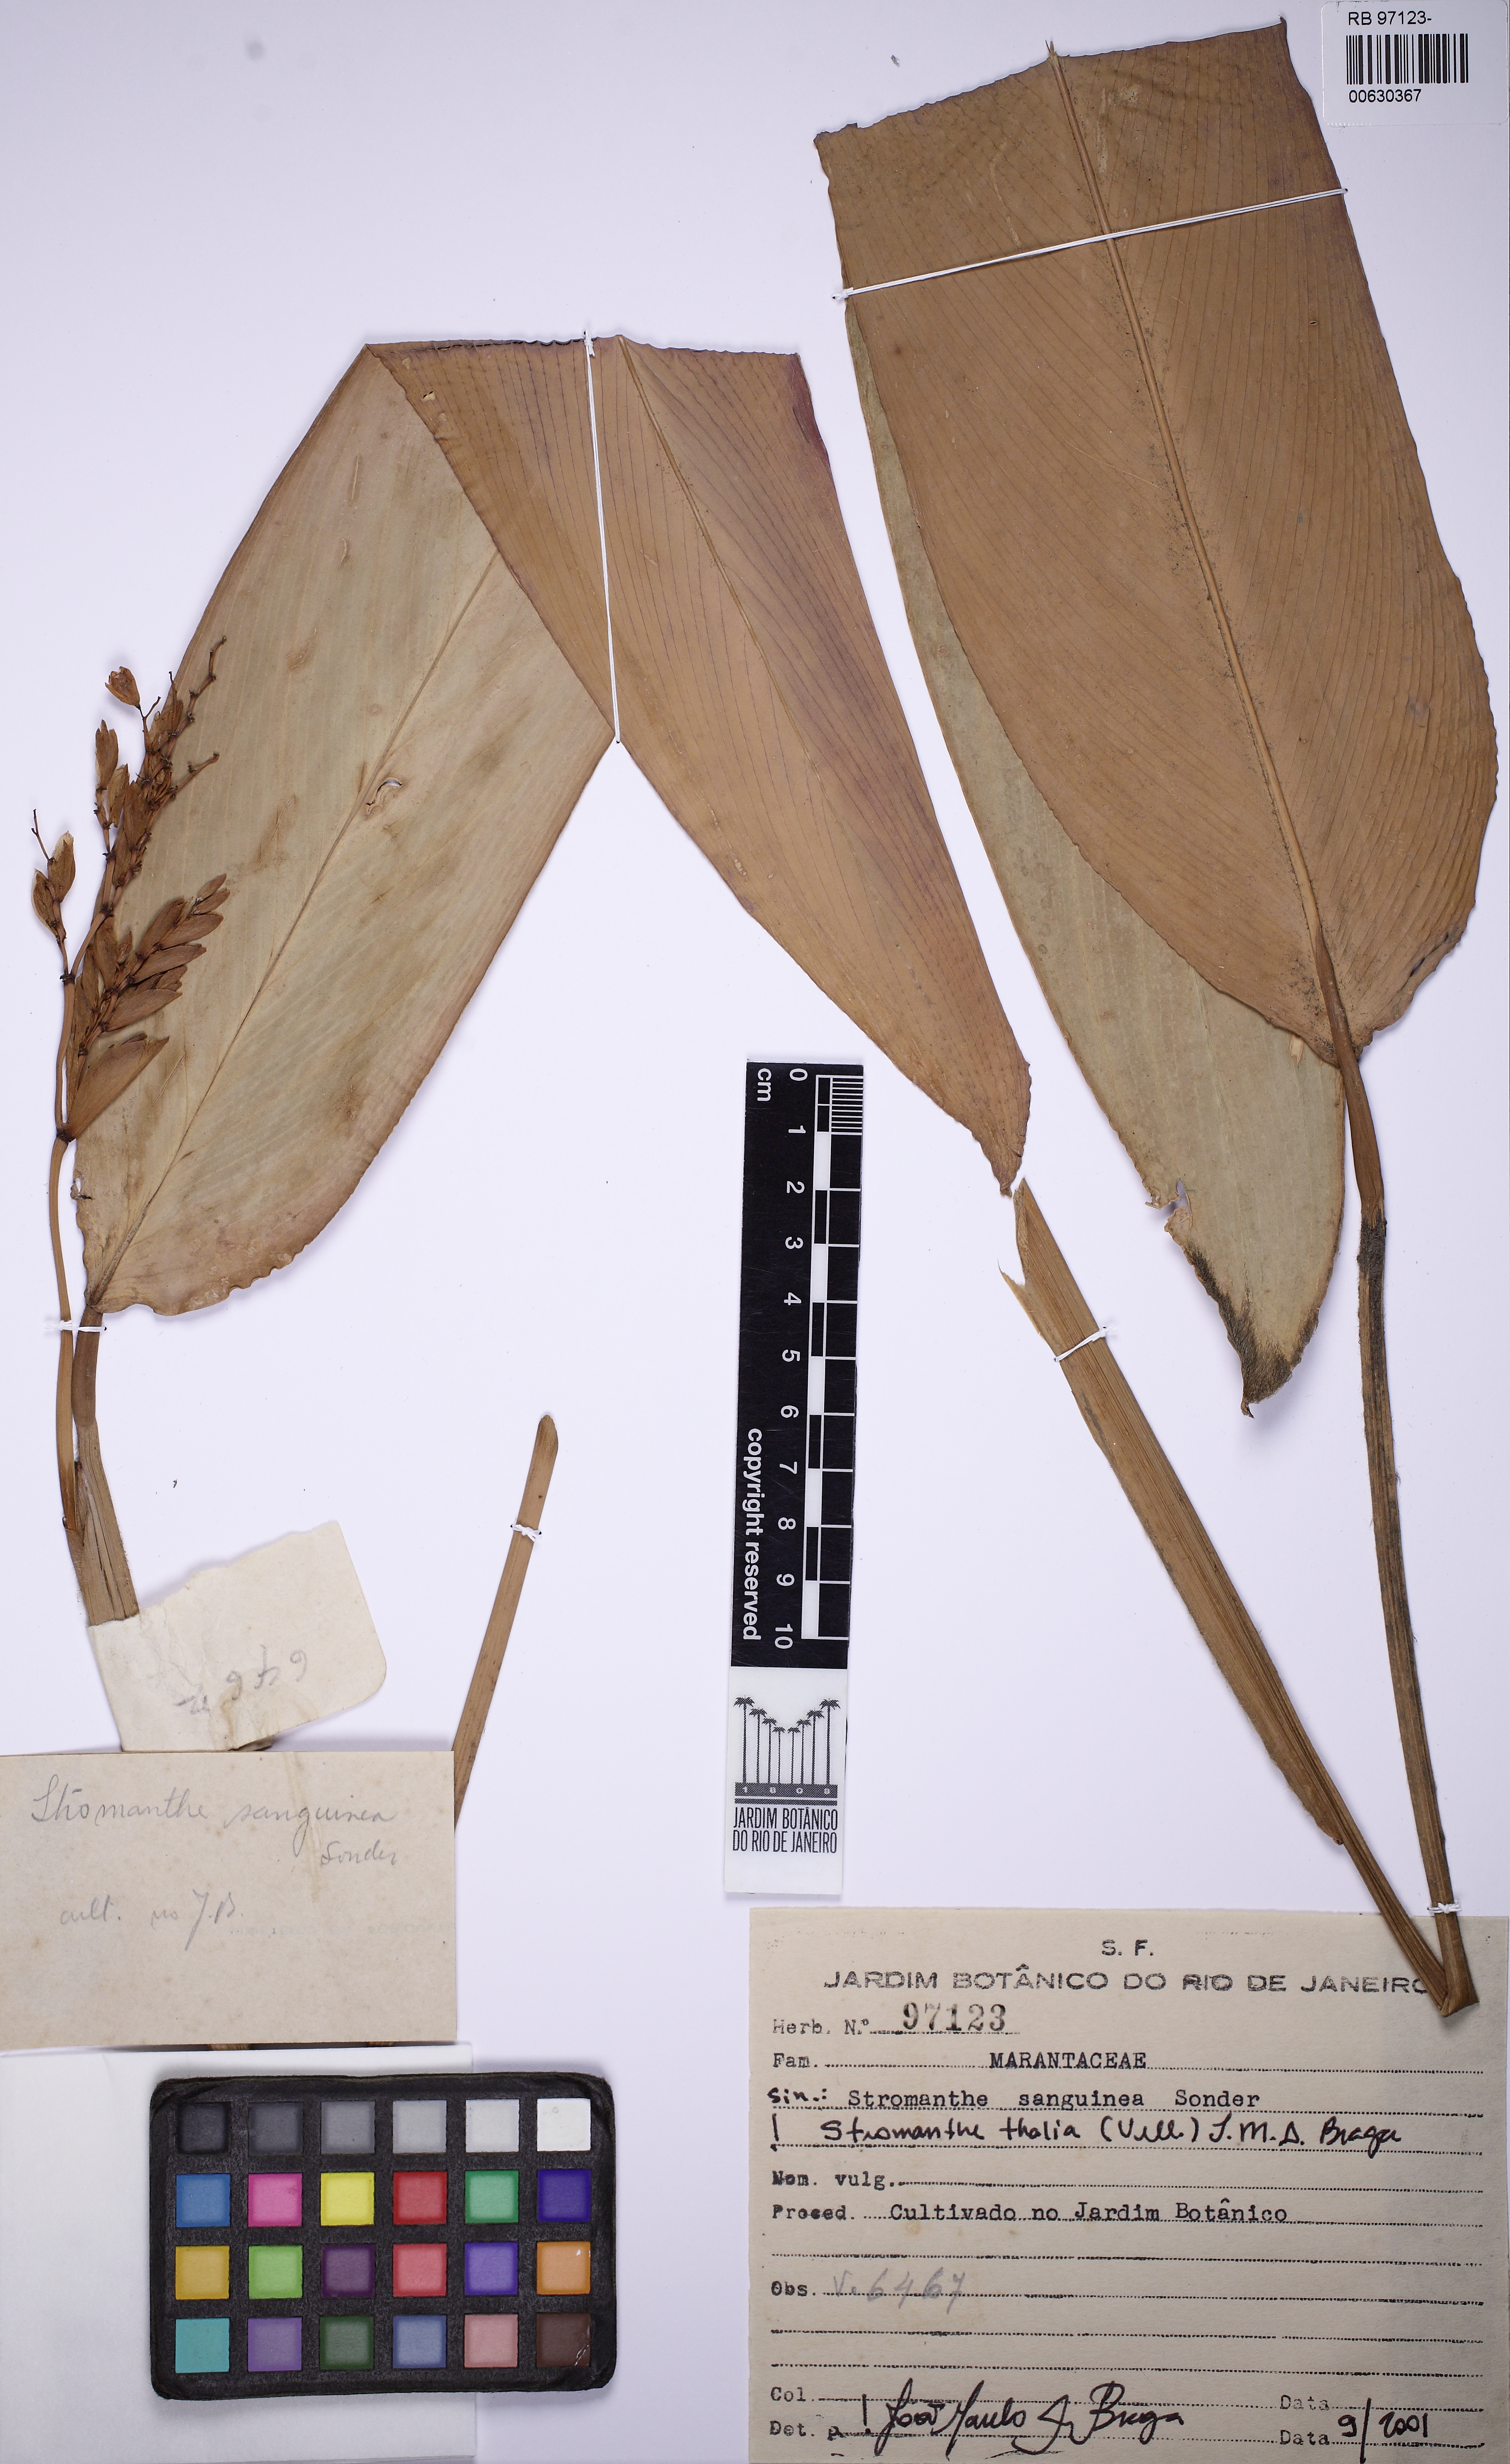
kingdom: Plantae
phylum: Tracheophyta
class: Liliopsida
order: Zingiberales
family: Marantaceae
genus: Stromanthe
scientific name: Stromanthe thalia
